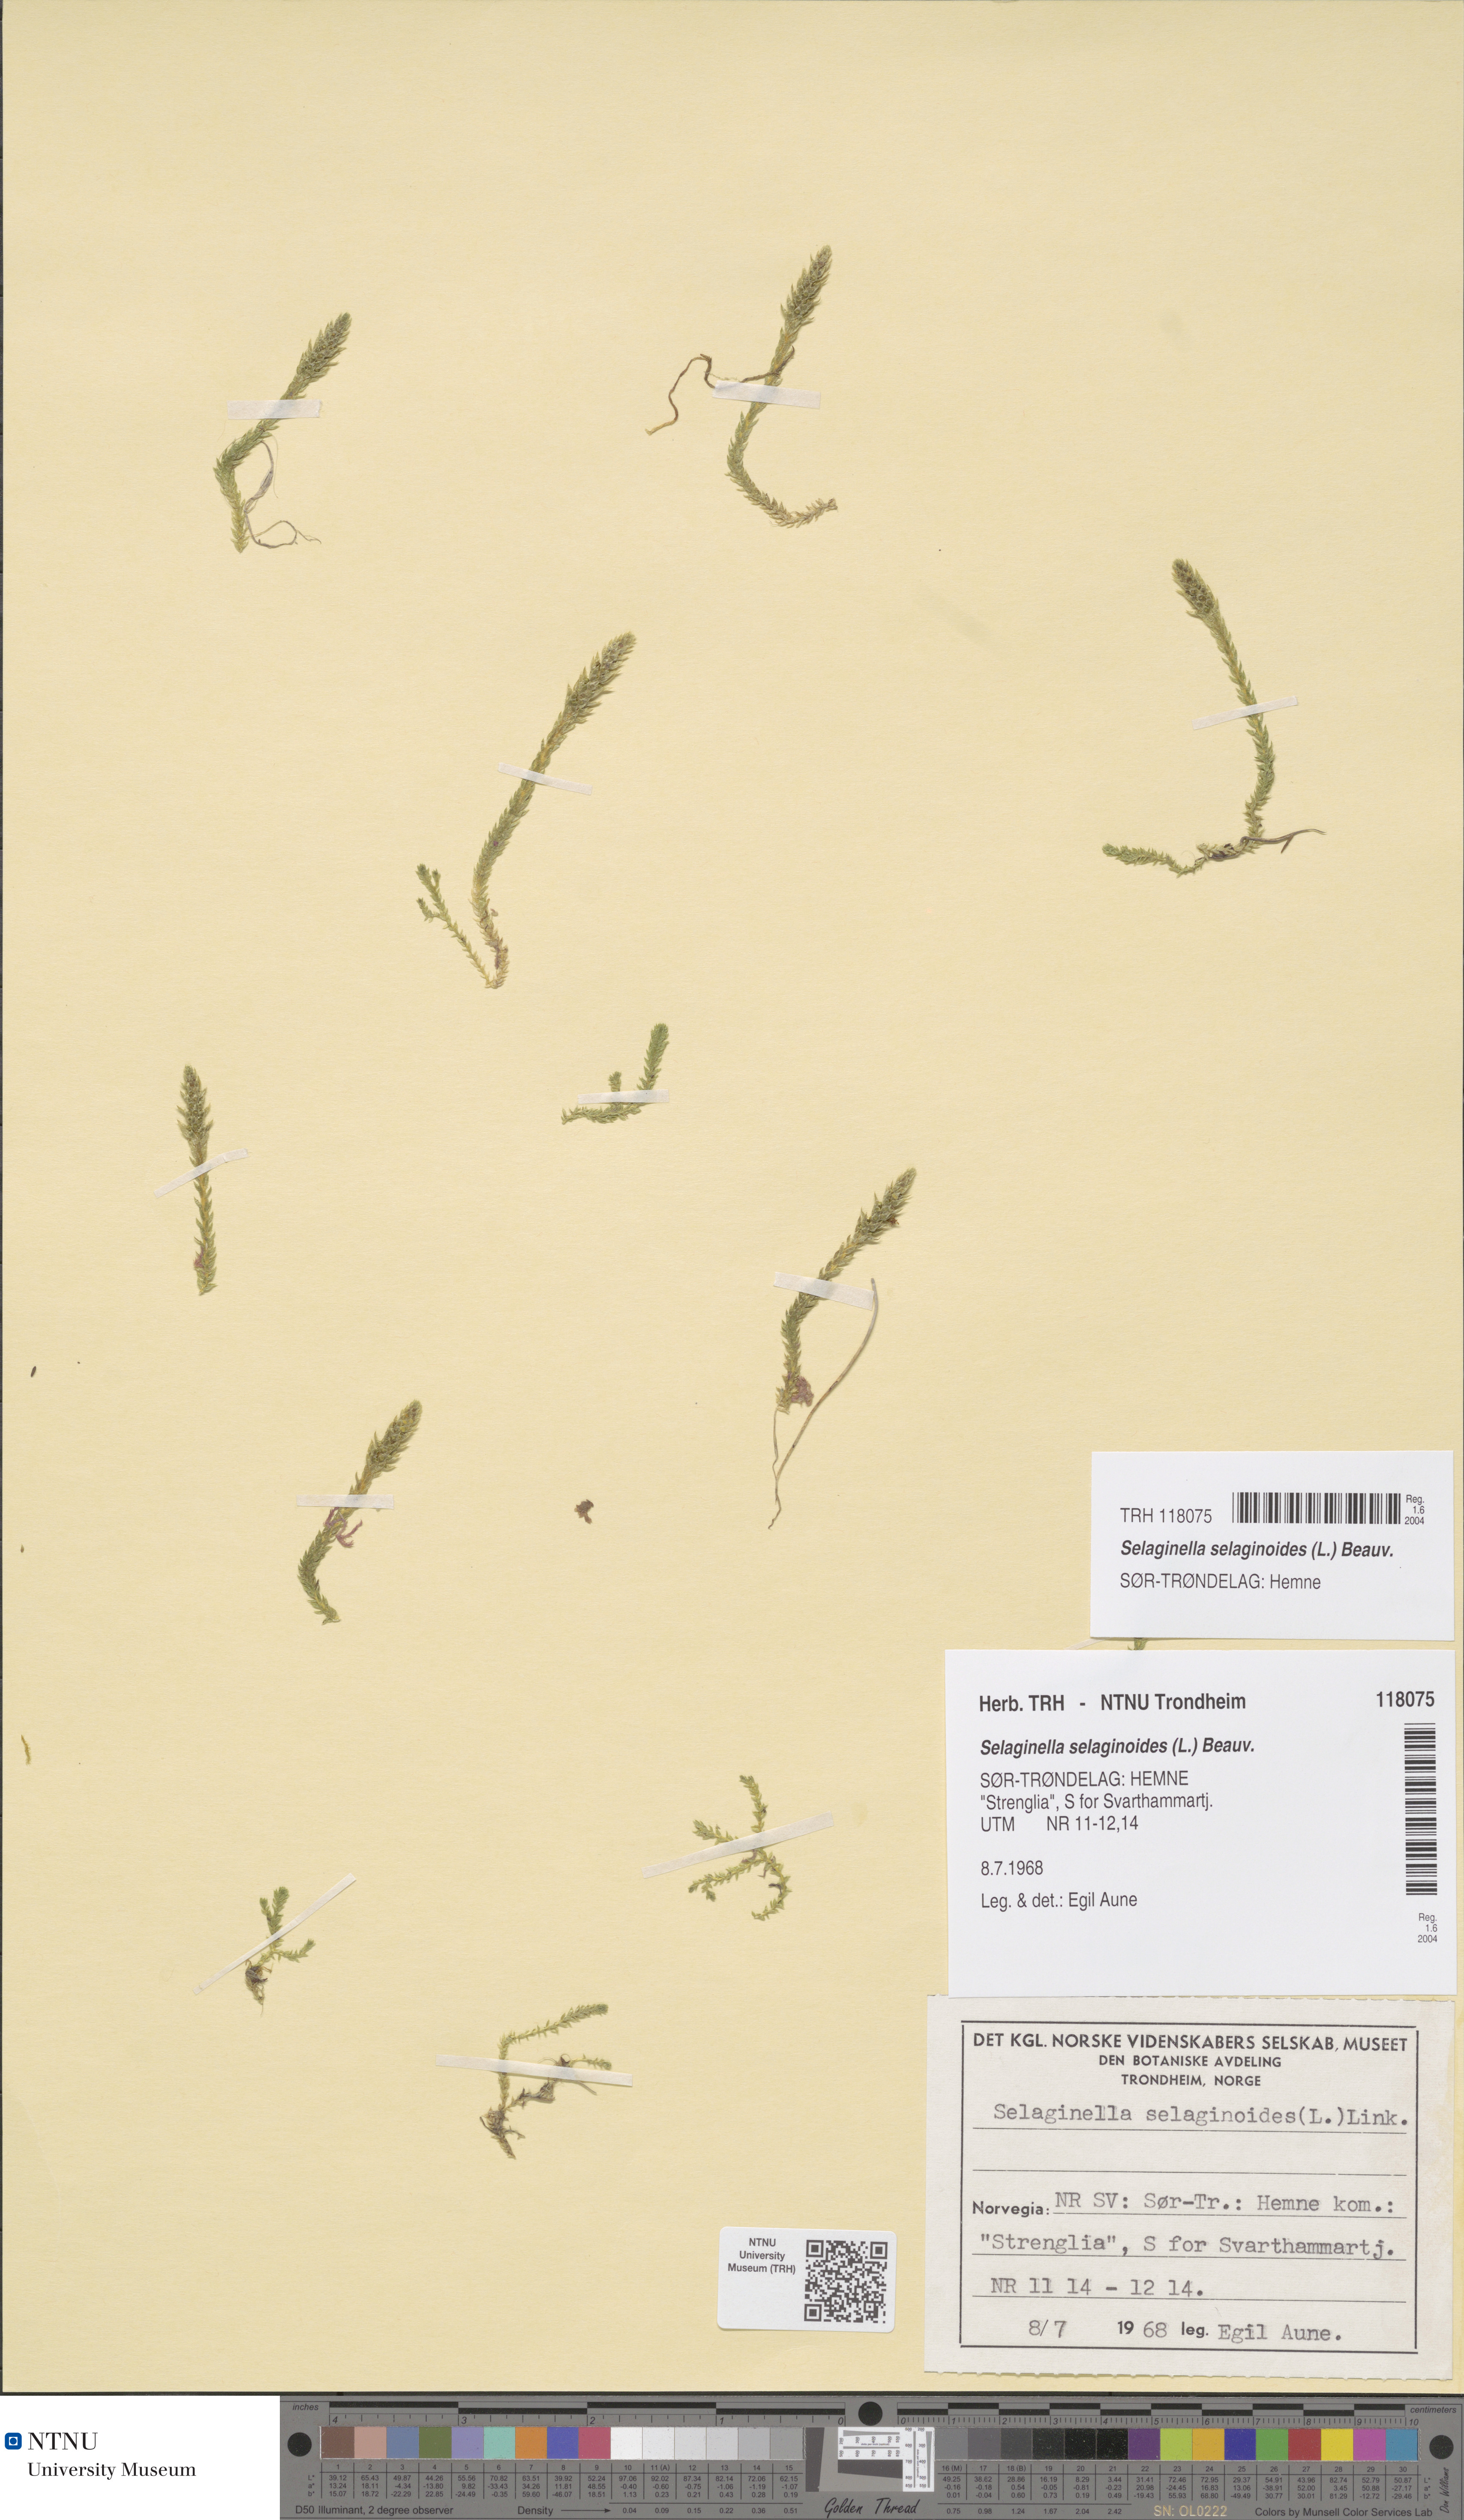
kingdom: Plantae
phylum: Tracheophyta
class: Lycopodiopsida
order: Selaginellales
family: Selaginellaceae
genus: Selaginella
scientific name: Selaginella selaginoides
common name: Prickly mountain-moss
